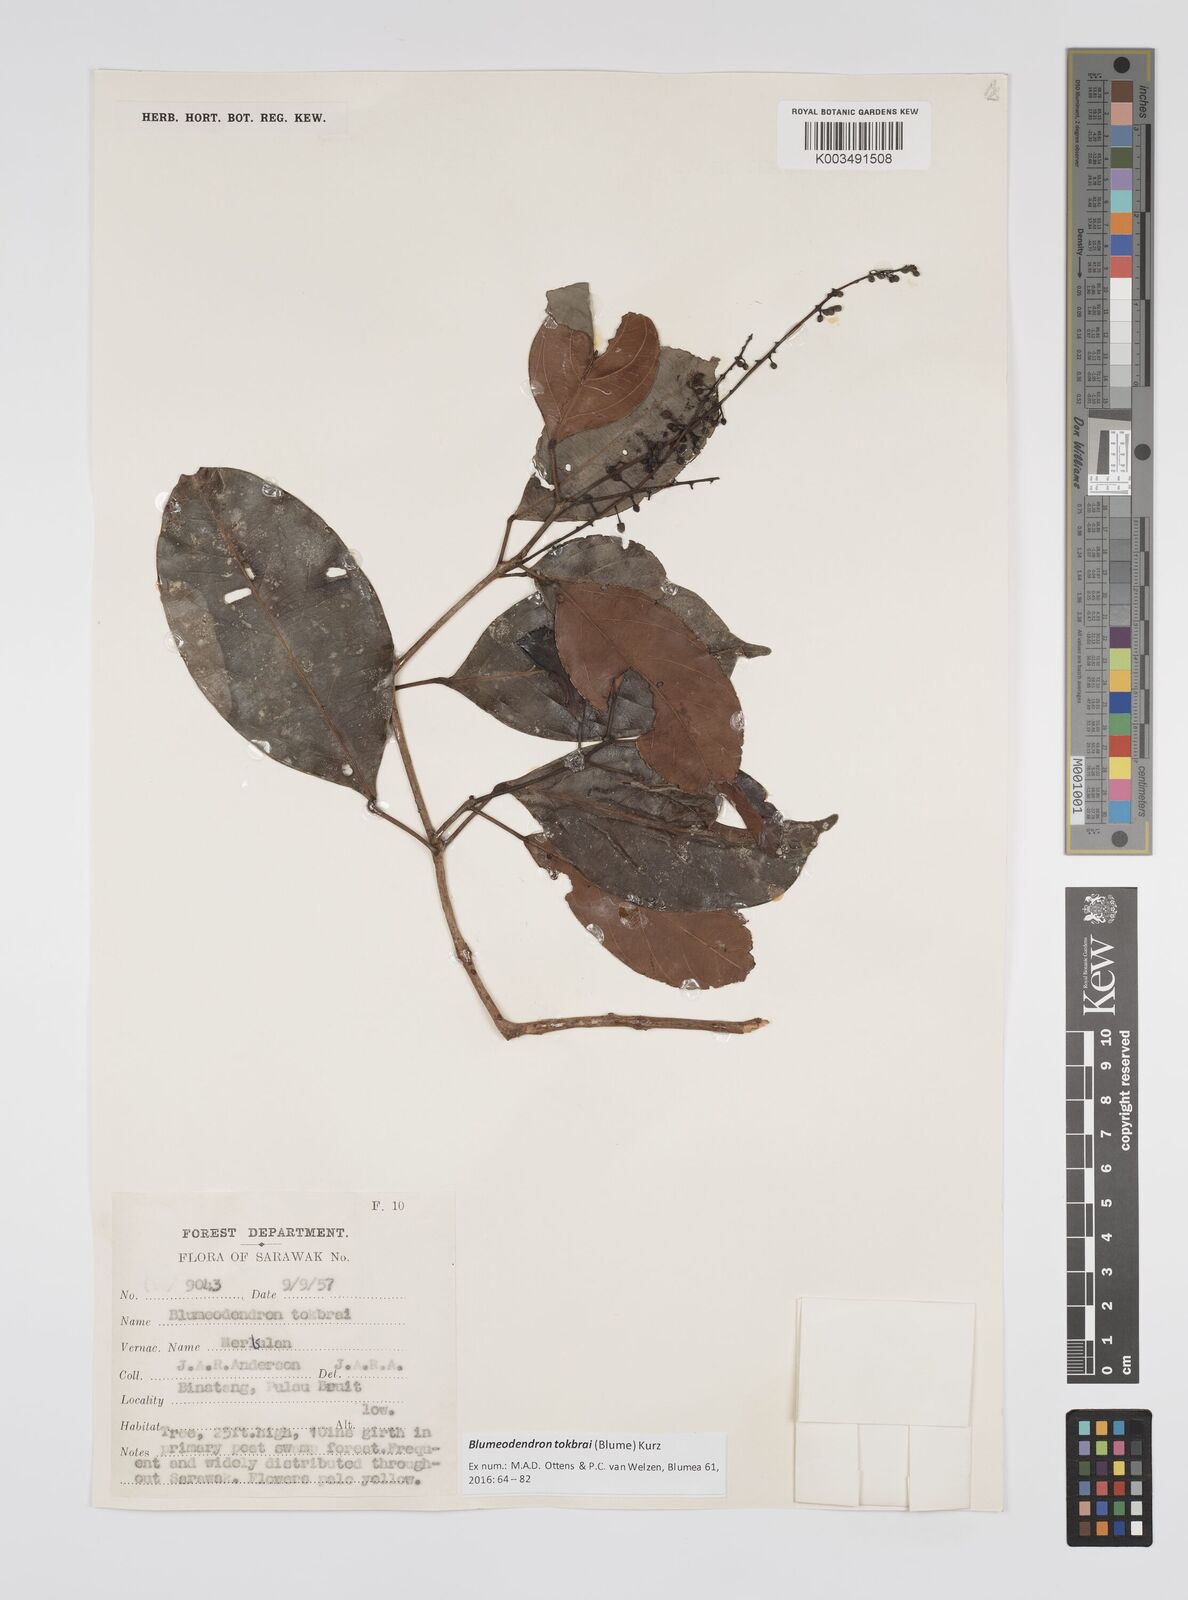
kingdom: Plantae
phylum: Tracheophyta
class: Magnoliopsida
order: Malpighiales
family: Euphorbiaceae
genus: Blumeodendron
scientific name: Blumeodendron tokbrai
